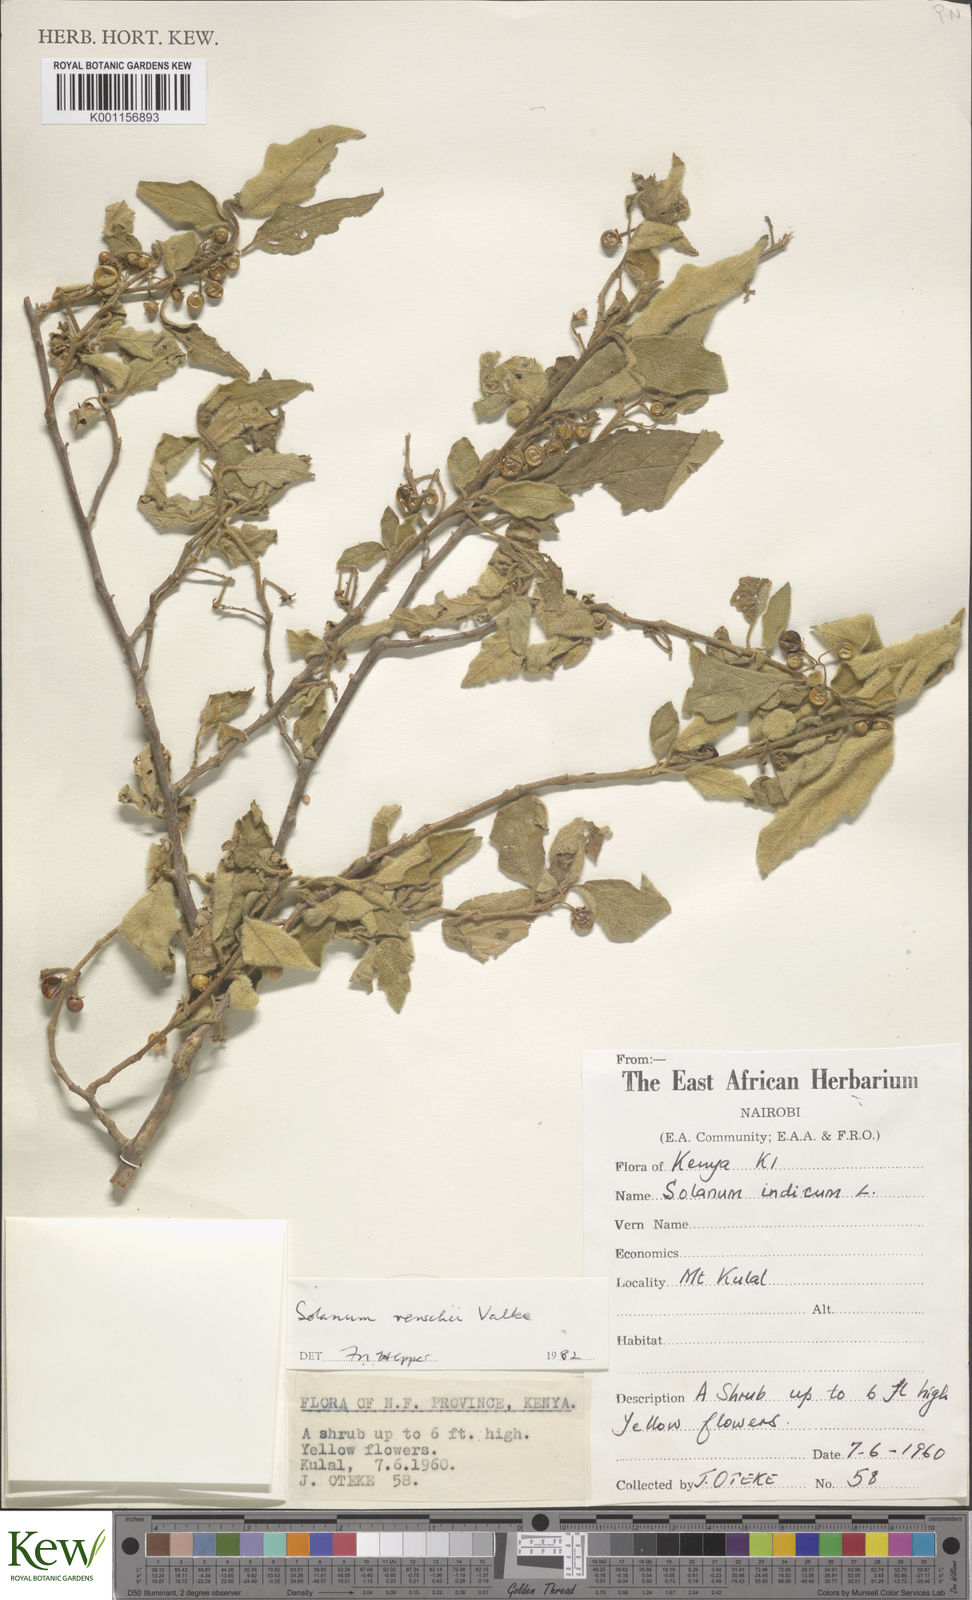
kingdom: Plantae
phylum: Tracheophyta
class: Magnoliopsida
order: Solanales
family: Solanaceae
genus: Solanum
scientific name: Solanum anguivi
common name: Forest bitterberry
